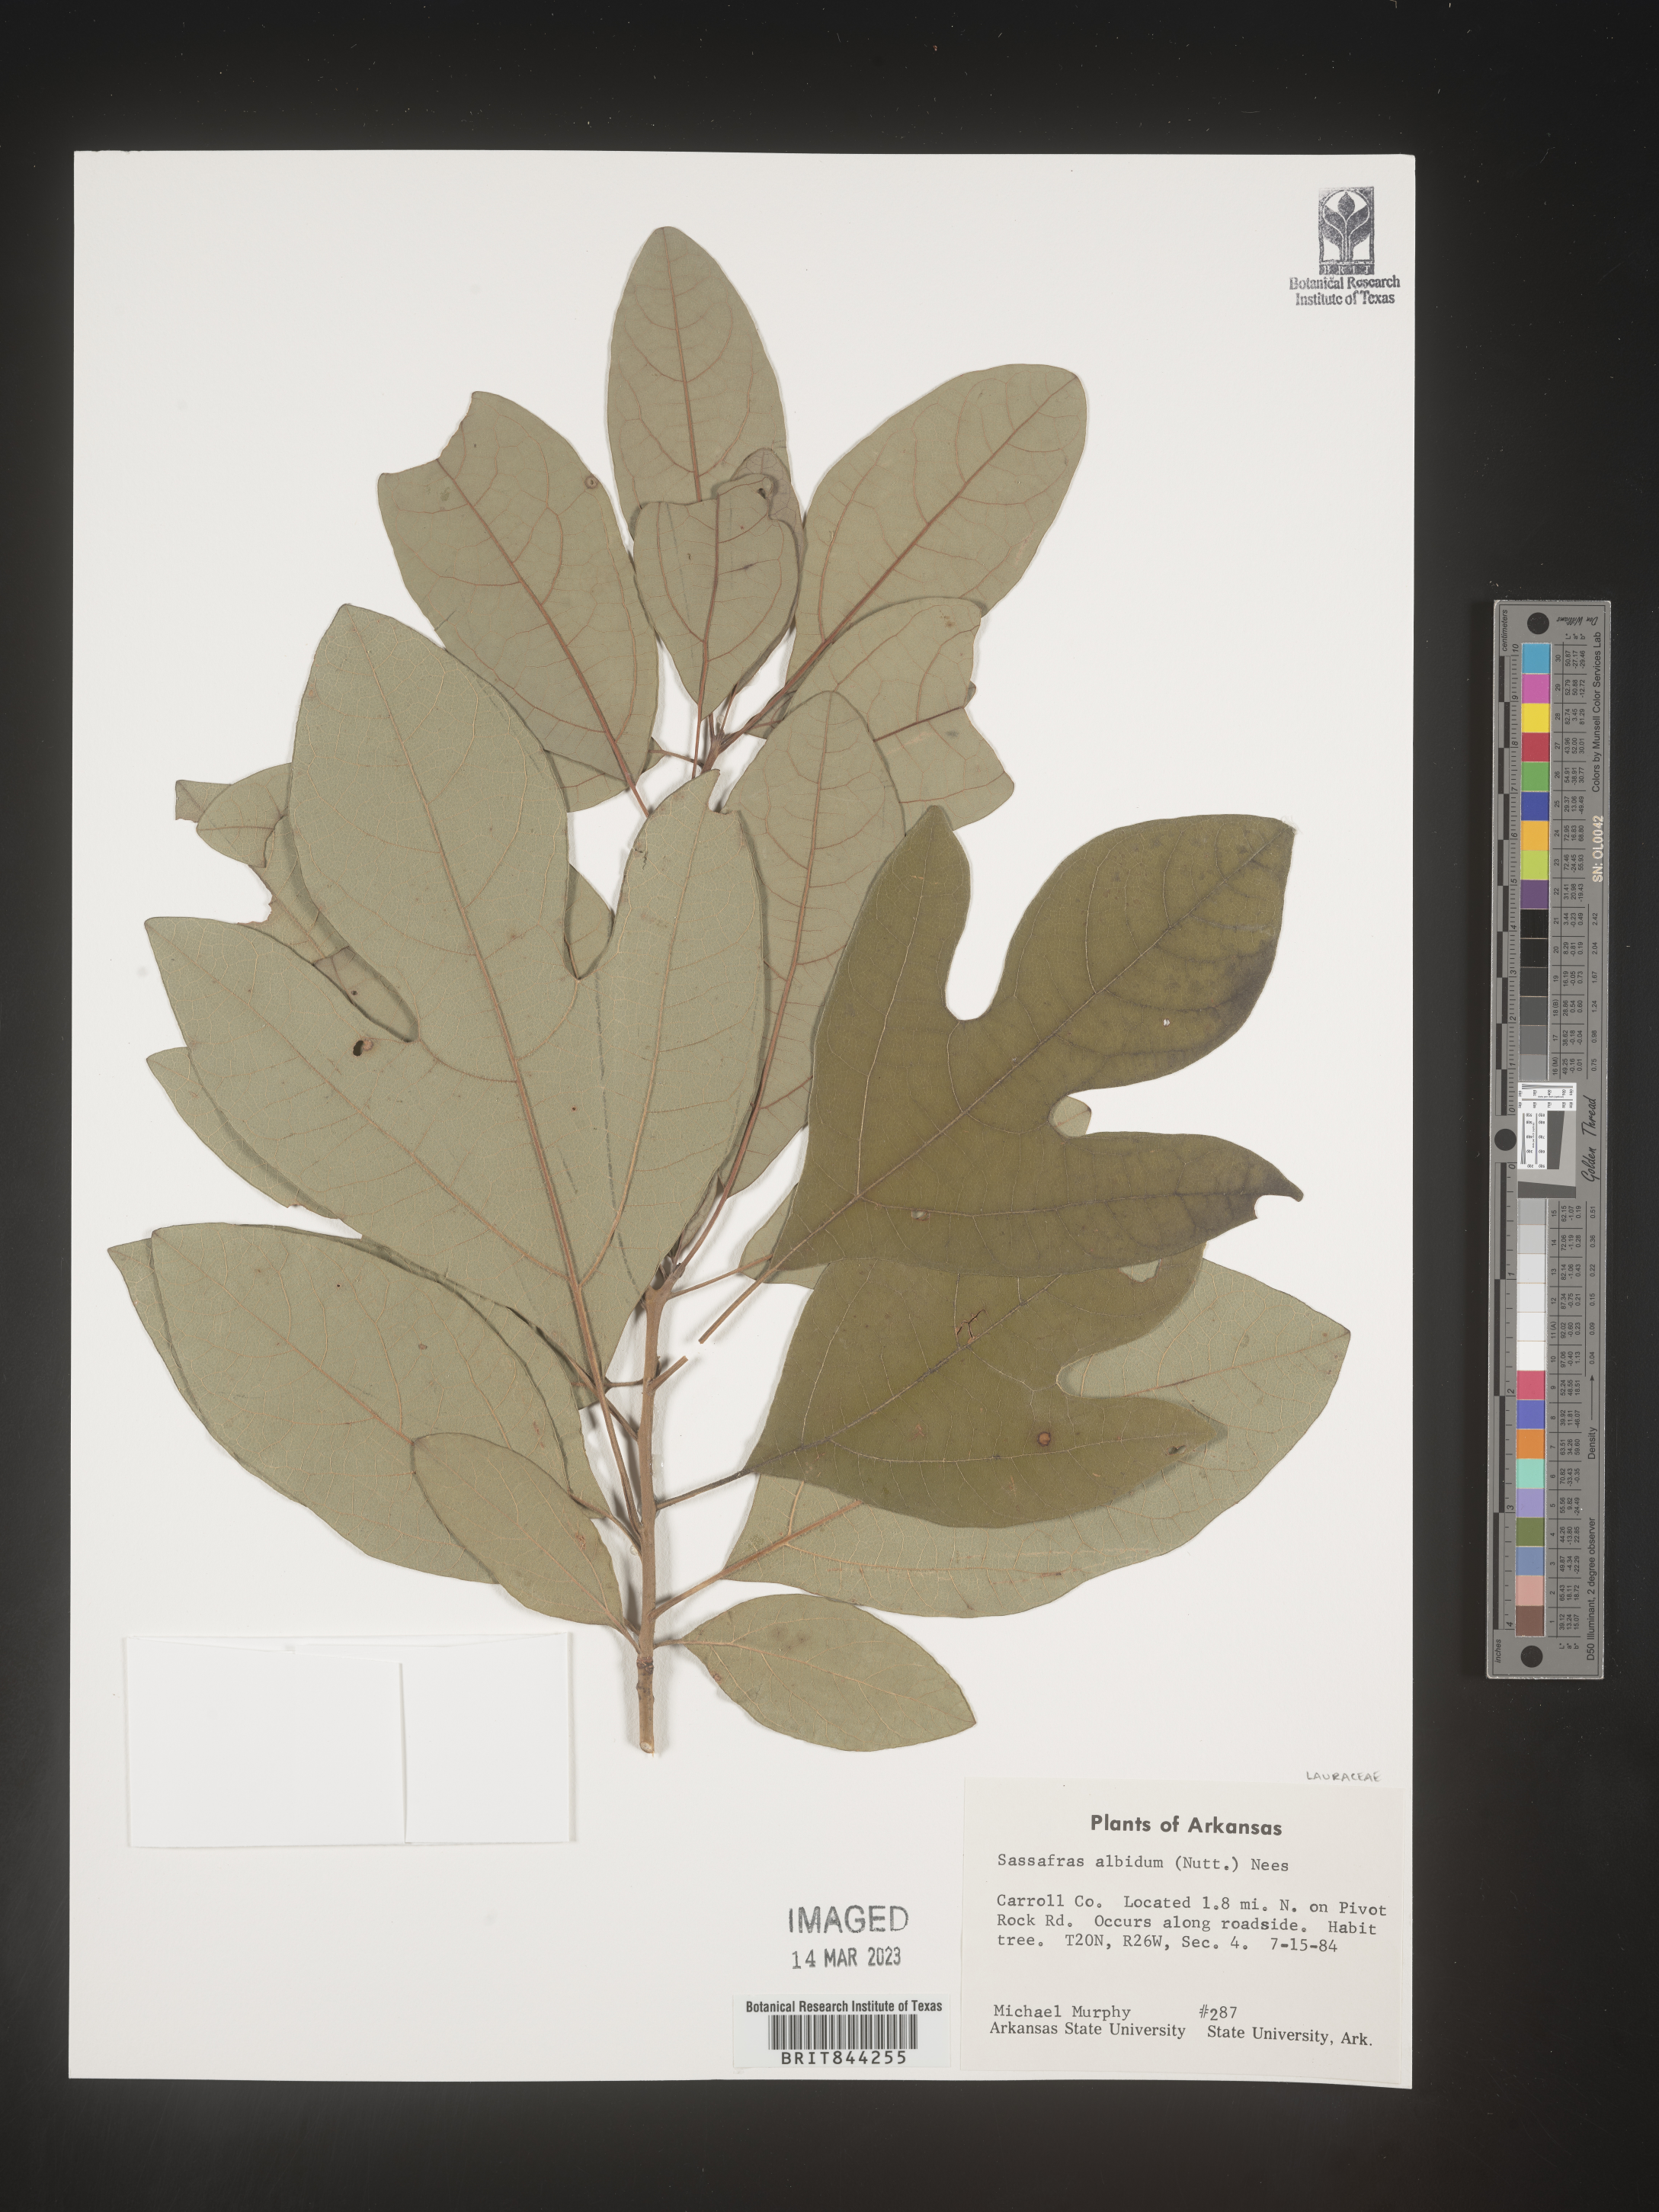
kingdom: Plantae
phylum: Tracheophyta
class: Magnoliopsida
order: Laurales
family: Lauraceae
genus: Sassafras
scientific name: Sassafras albidum
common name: Sassafras
